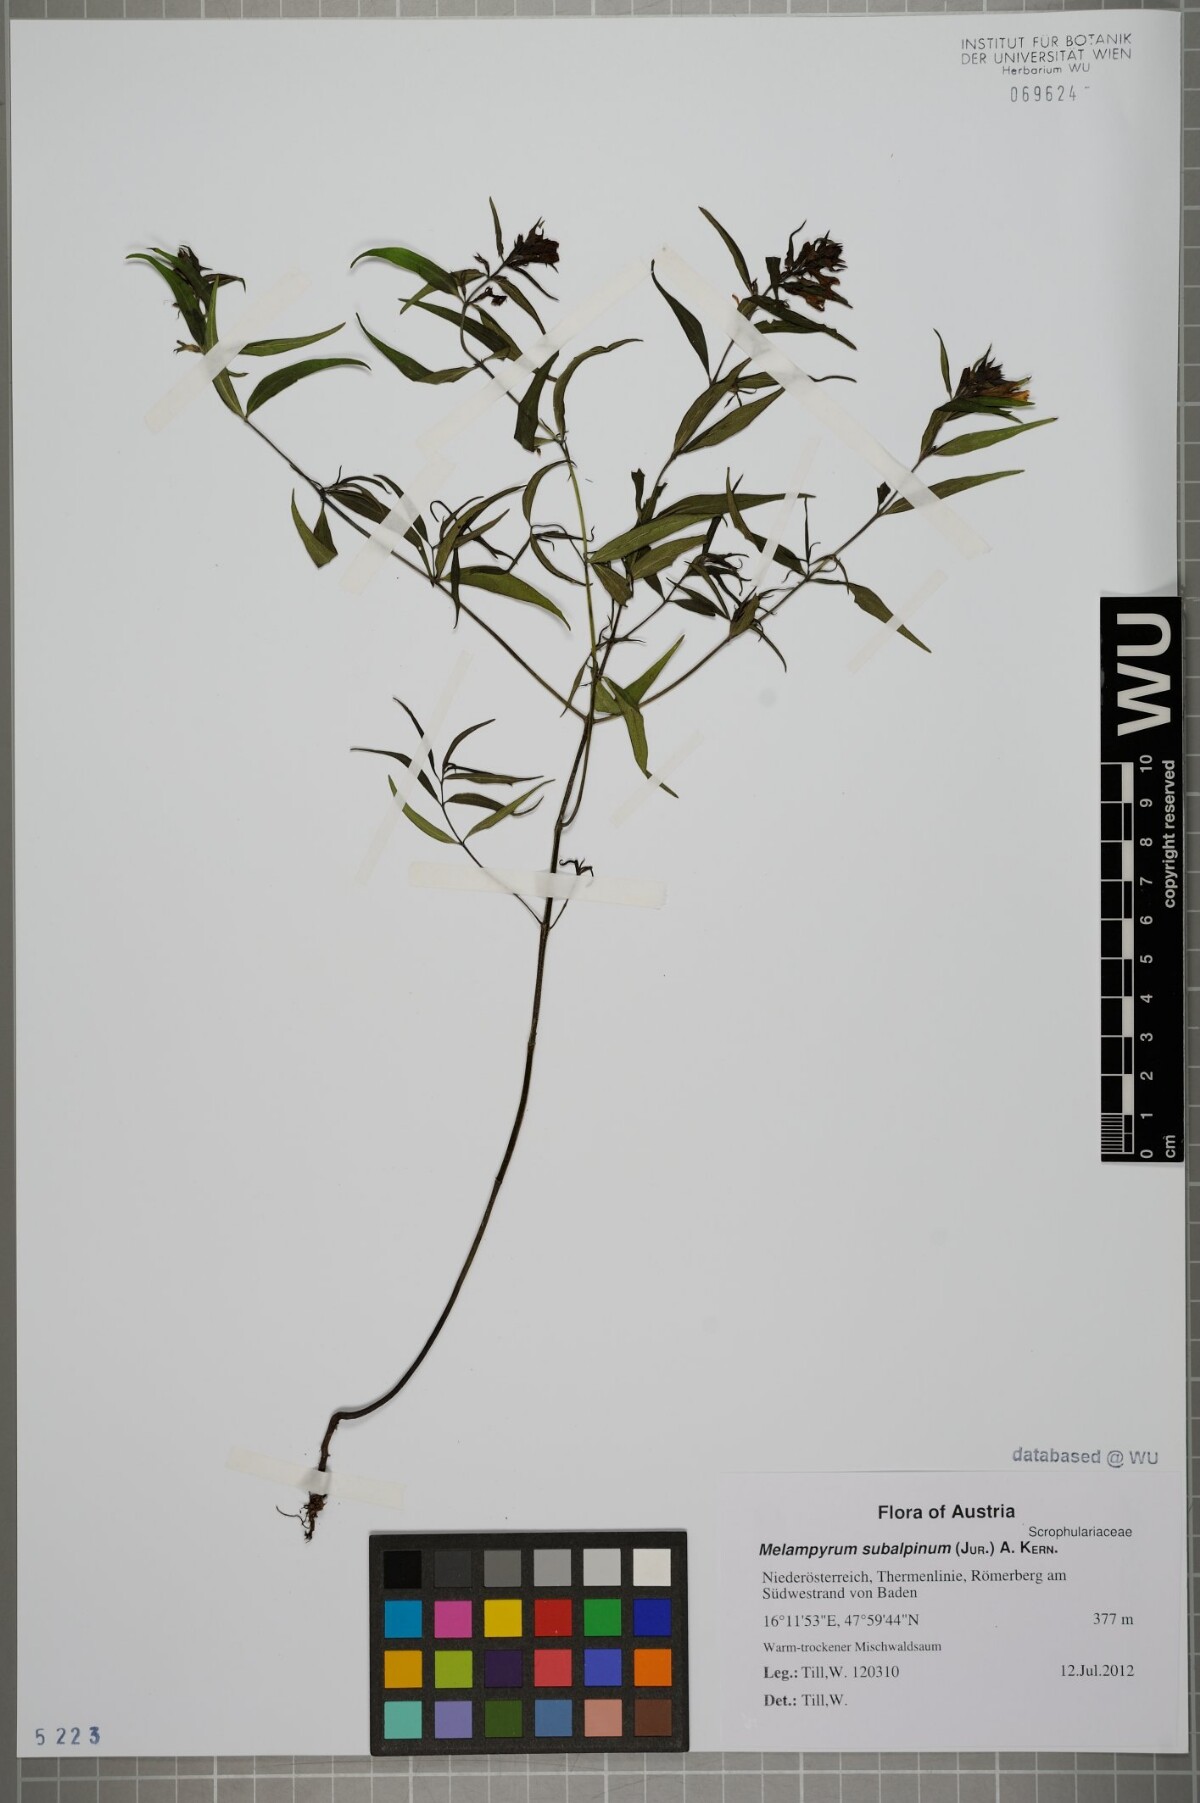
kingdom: Plantae
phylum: Tracheophyta
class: Magnoliopsida
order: Lamiales
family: Orobanchaceae
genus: Melampyrum
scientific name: Melampyrum subalpinum
